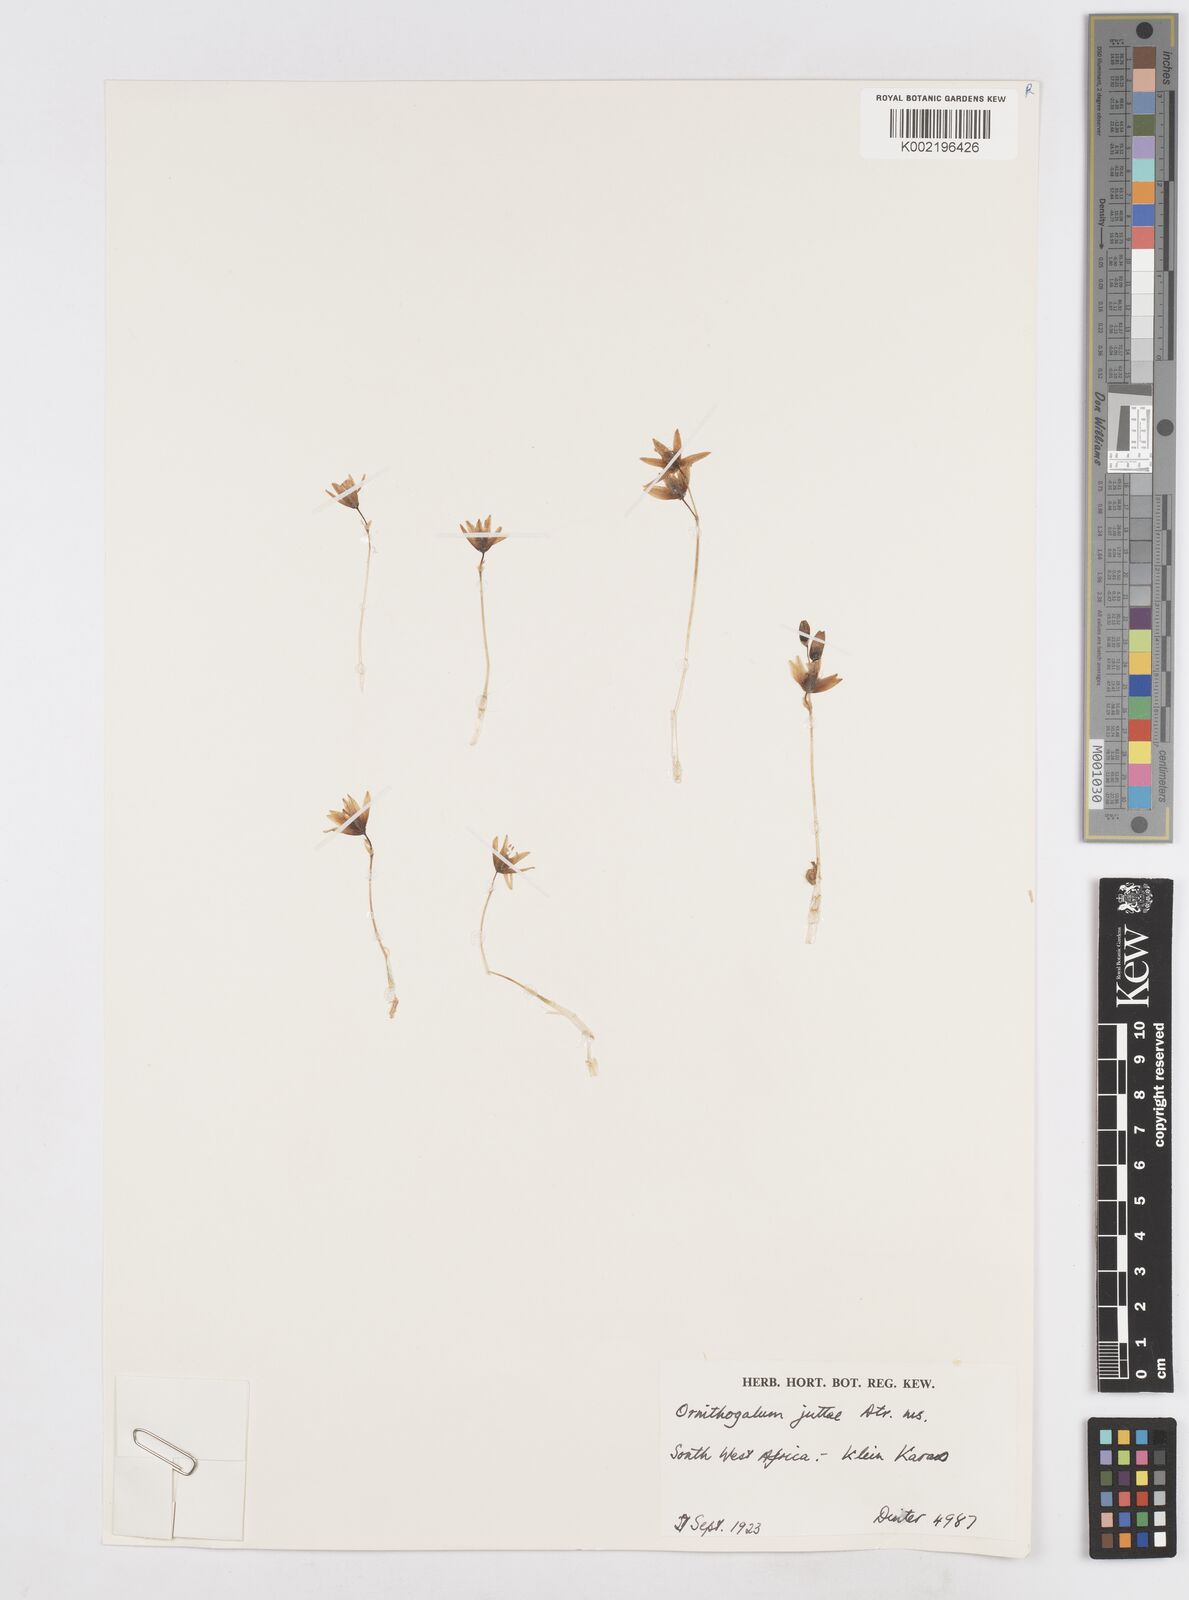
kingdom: Plantae
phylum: Tracheophyta
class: Liliopsida
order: Asparagales
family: Asparagaceae
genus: Albuca
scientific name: Albuca stapffii
